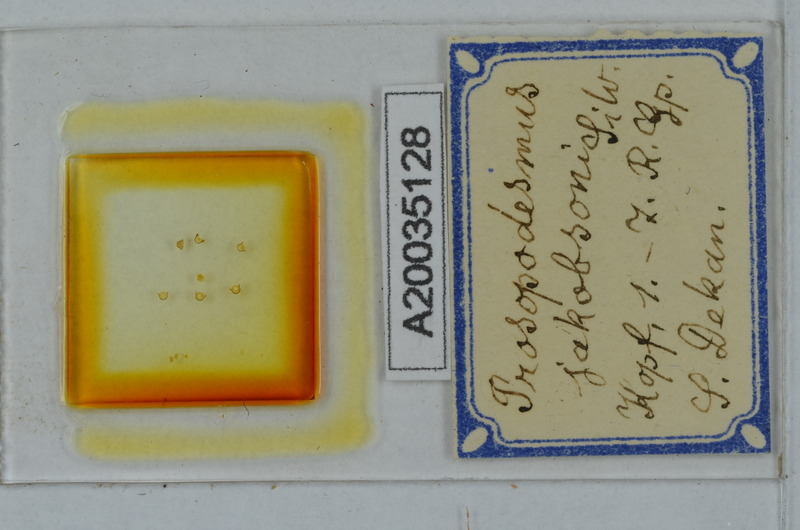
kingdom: Animalia
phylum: Arthropoda
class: Diplopoda
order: Polydesmida
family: Haplodesmidae
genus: Prosopodesmus
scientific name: Prosopodesmus jacobsoni
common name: Millipede
